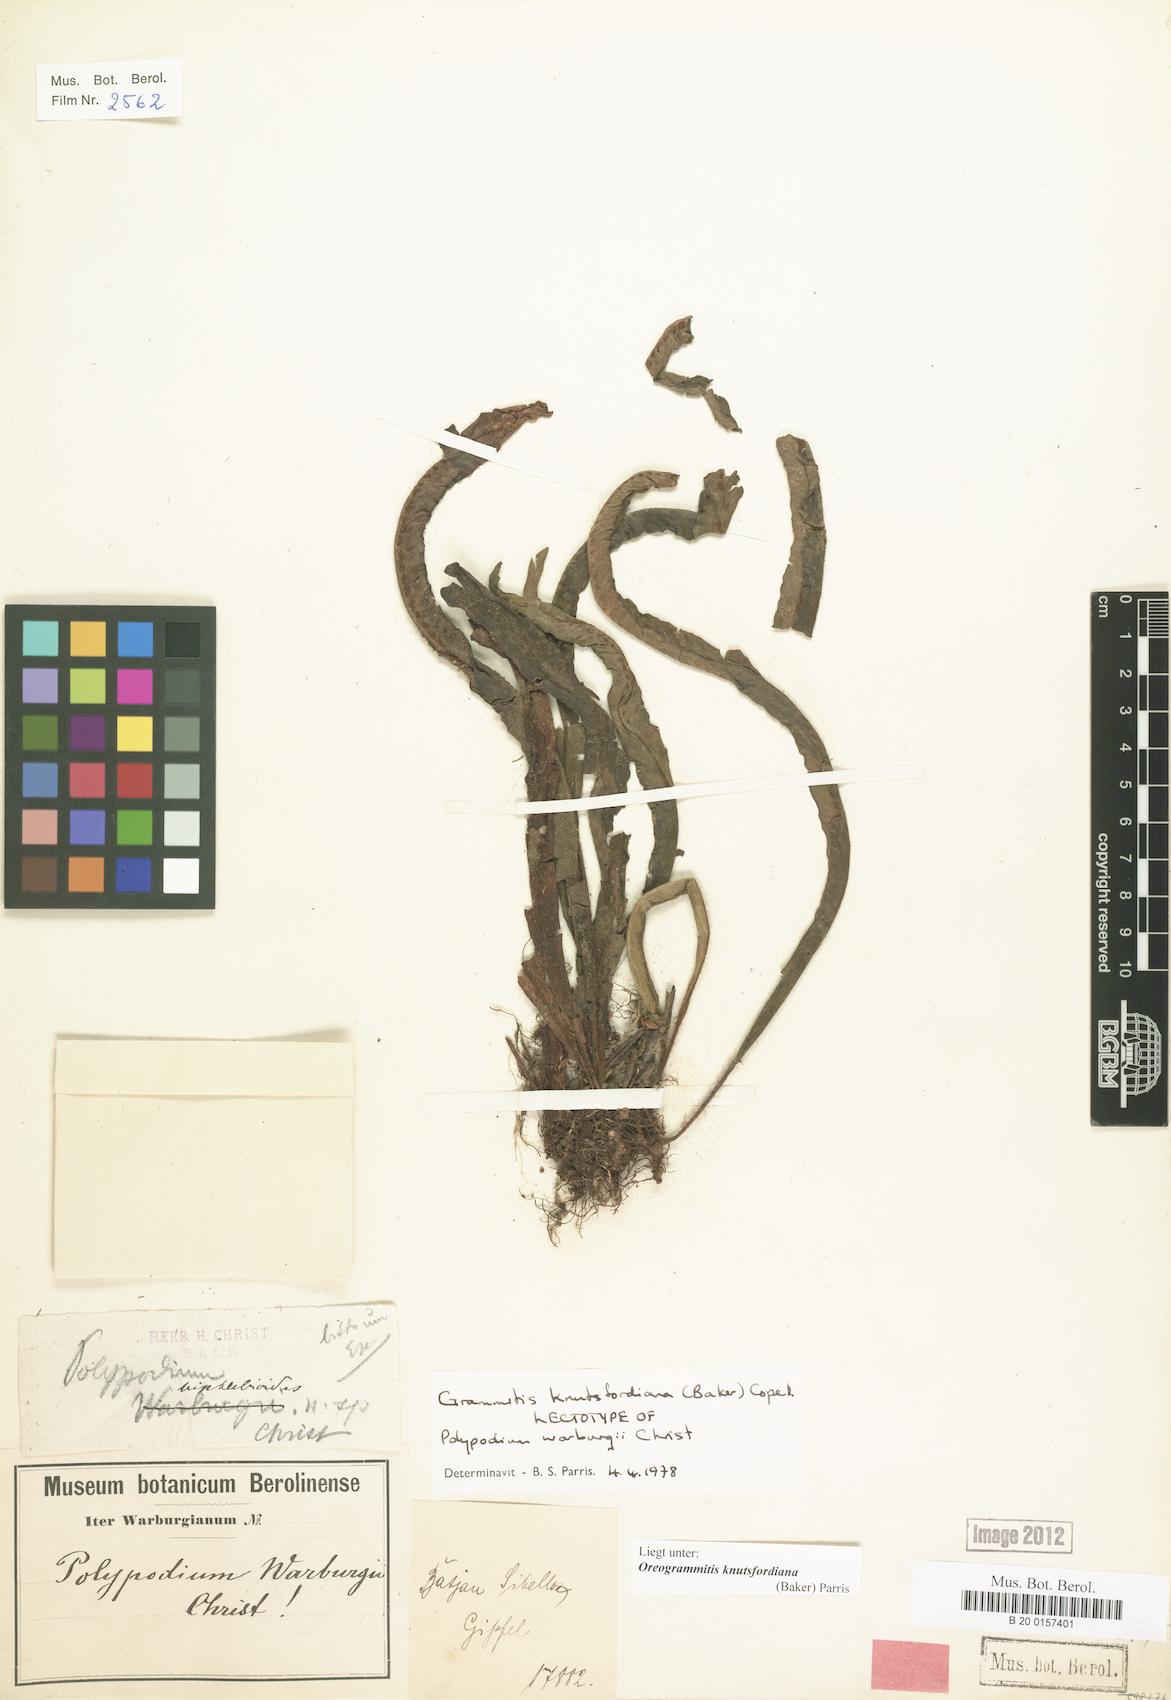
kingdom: Plantae
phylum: Tracheophyta
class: Polypodiopsida
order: Polypodiales
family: Polypodiaceae
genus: Oreogrammitis
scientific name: Oreogrammitis knutsfordiana
